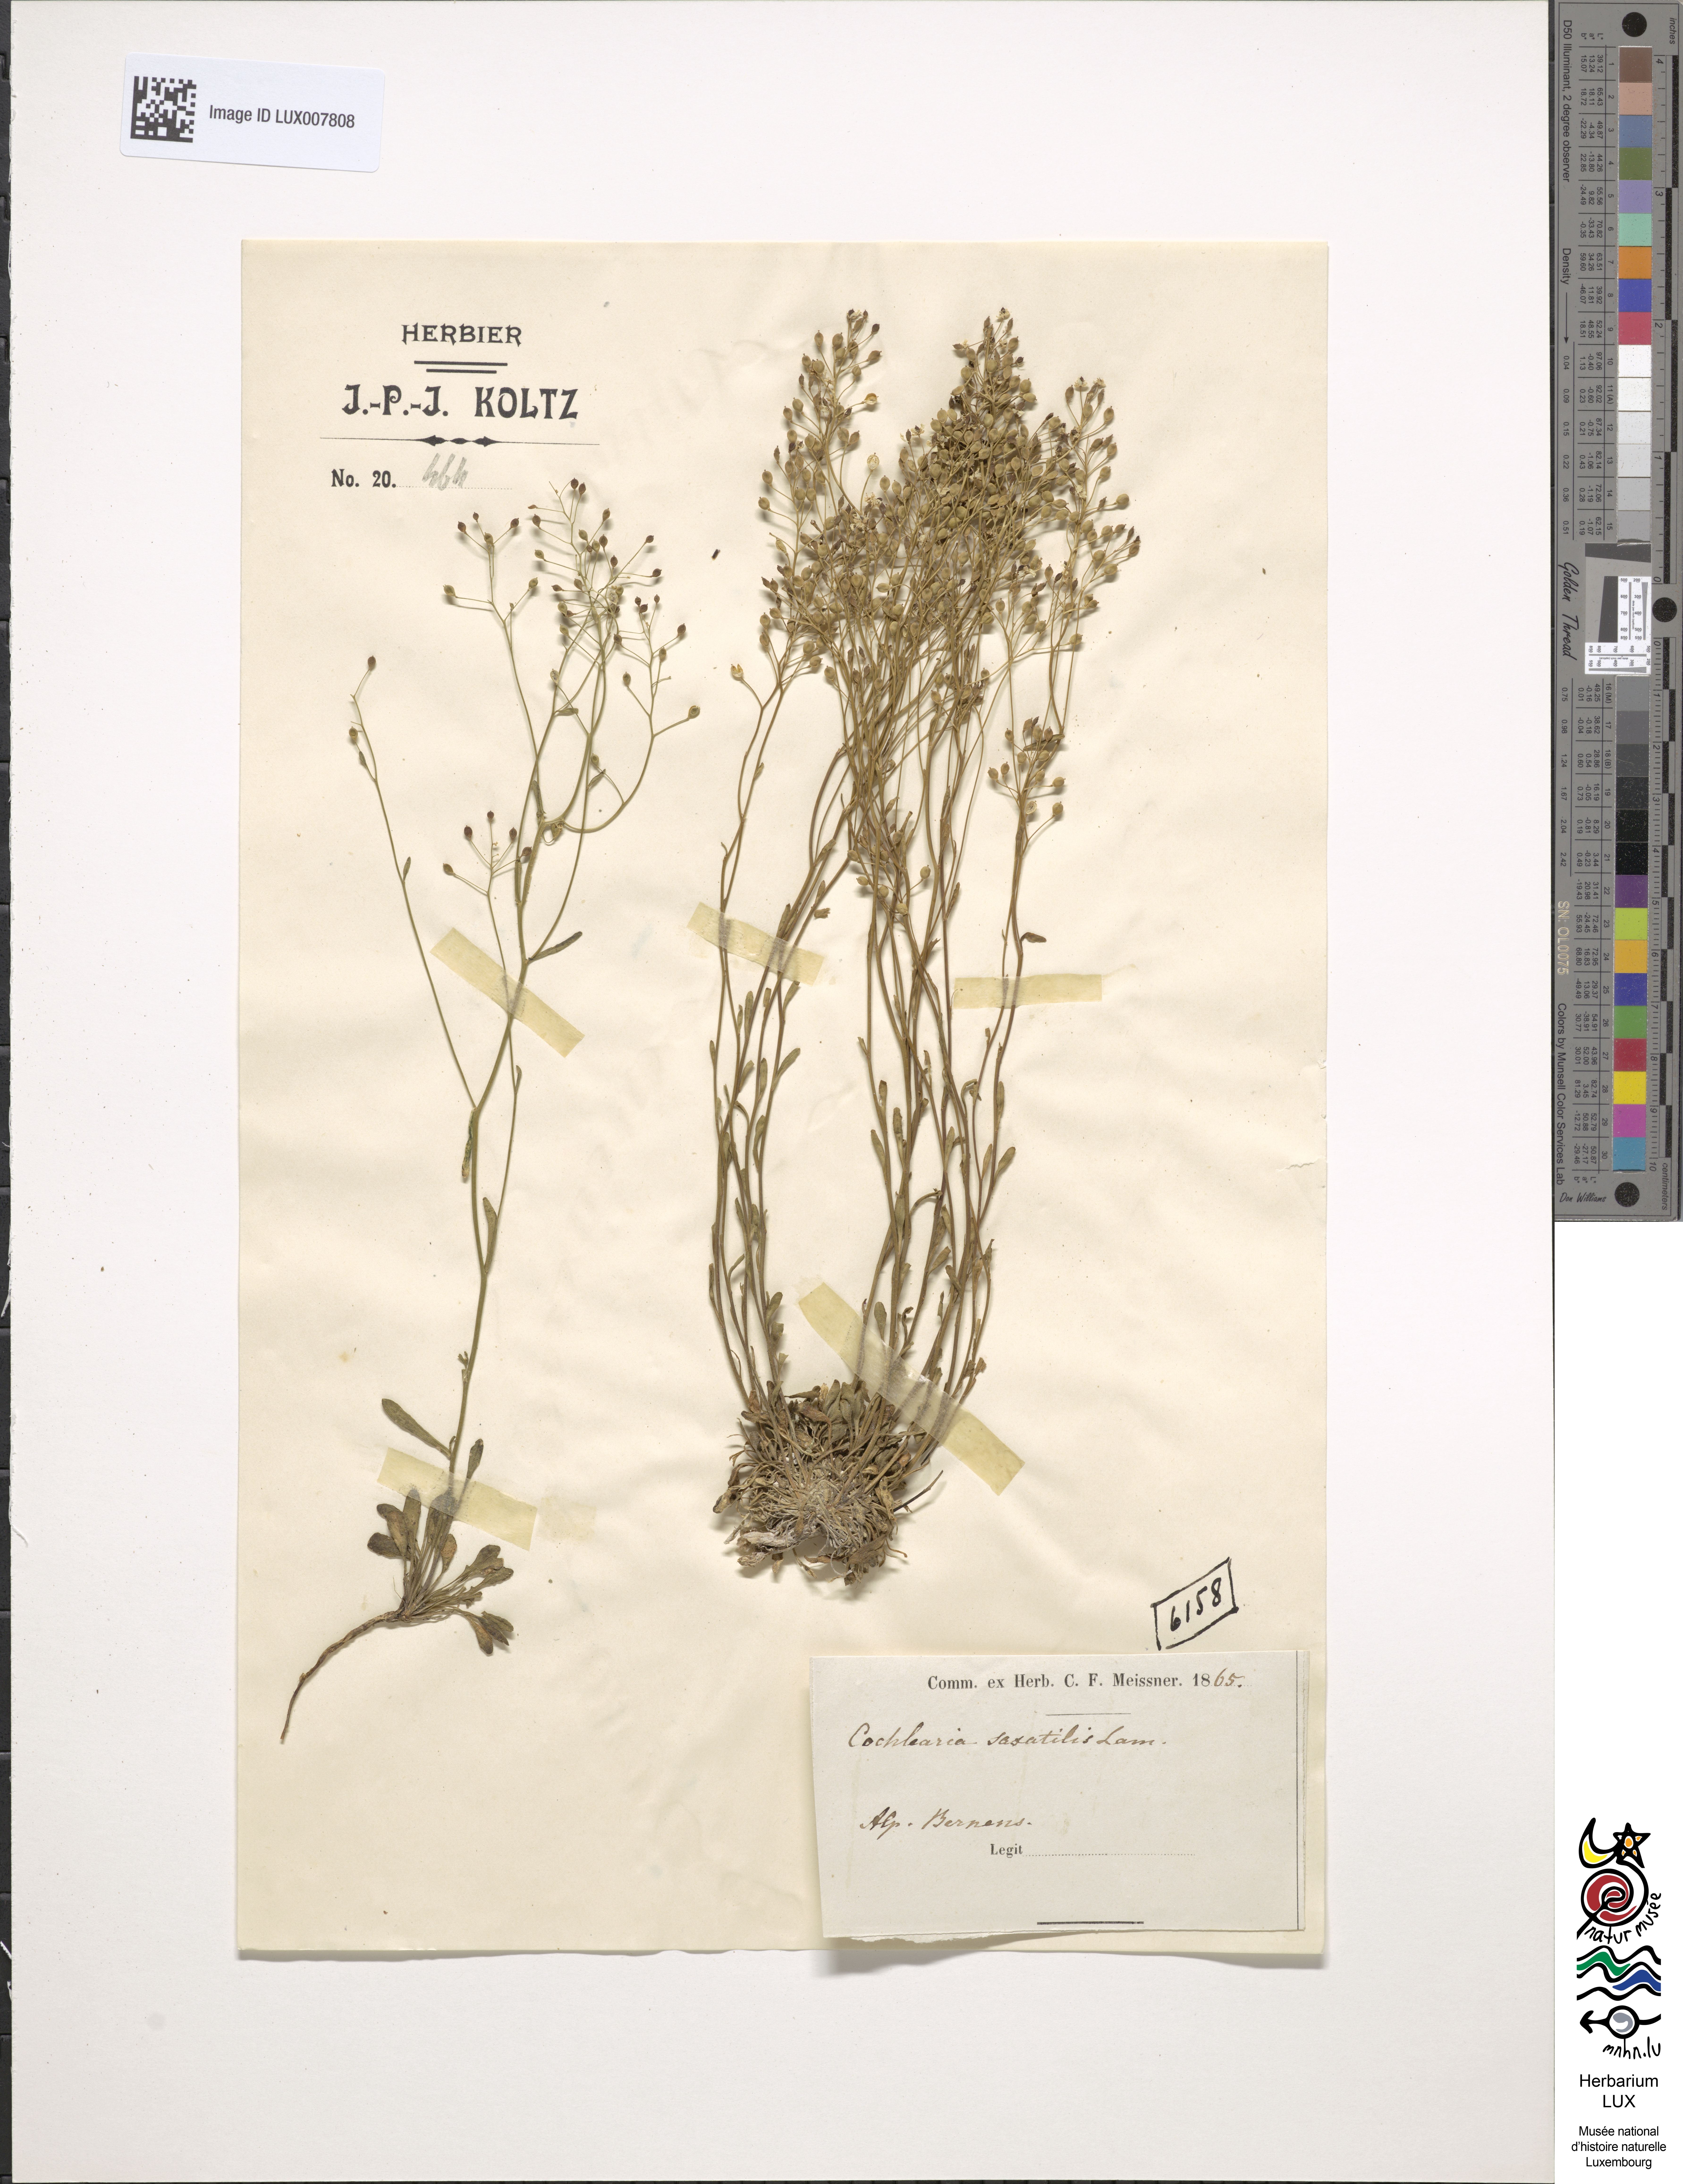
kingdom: Plantae
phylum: Tracheophyta
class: Magnoliopsida
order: Brassicales
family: Brassicaceae
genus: Kernera
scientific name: Kernera saxatilis
